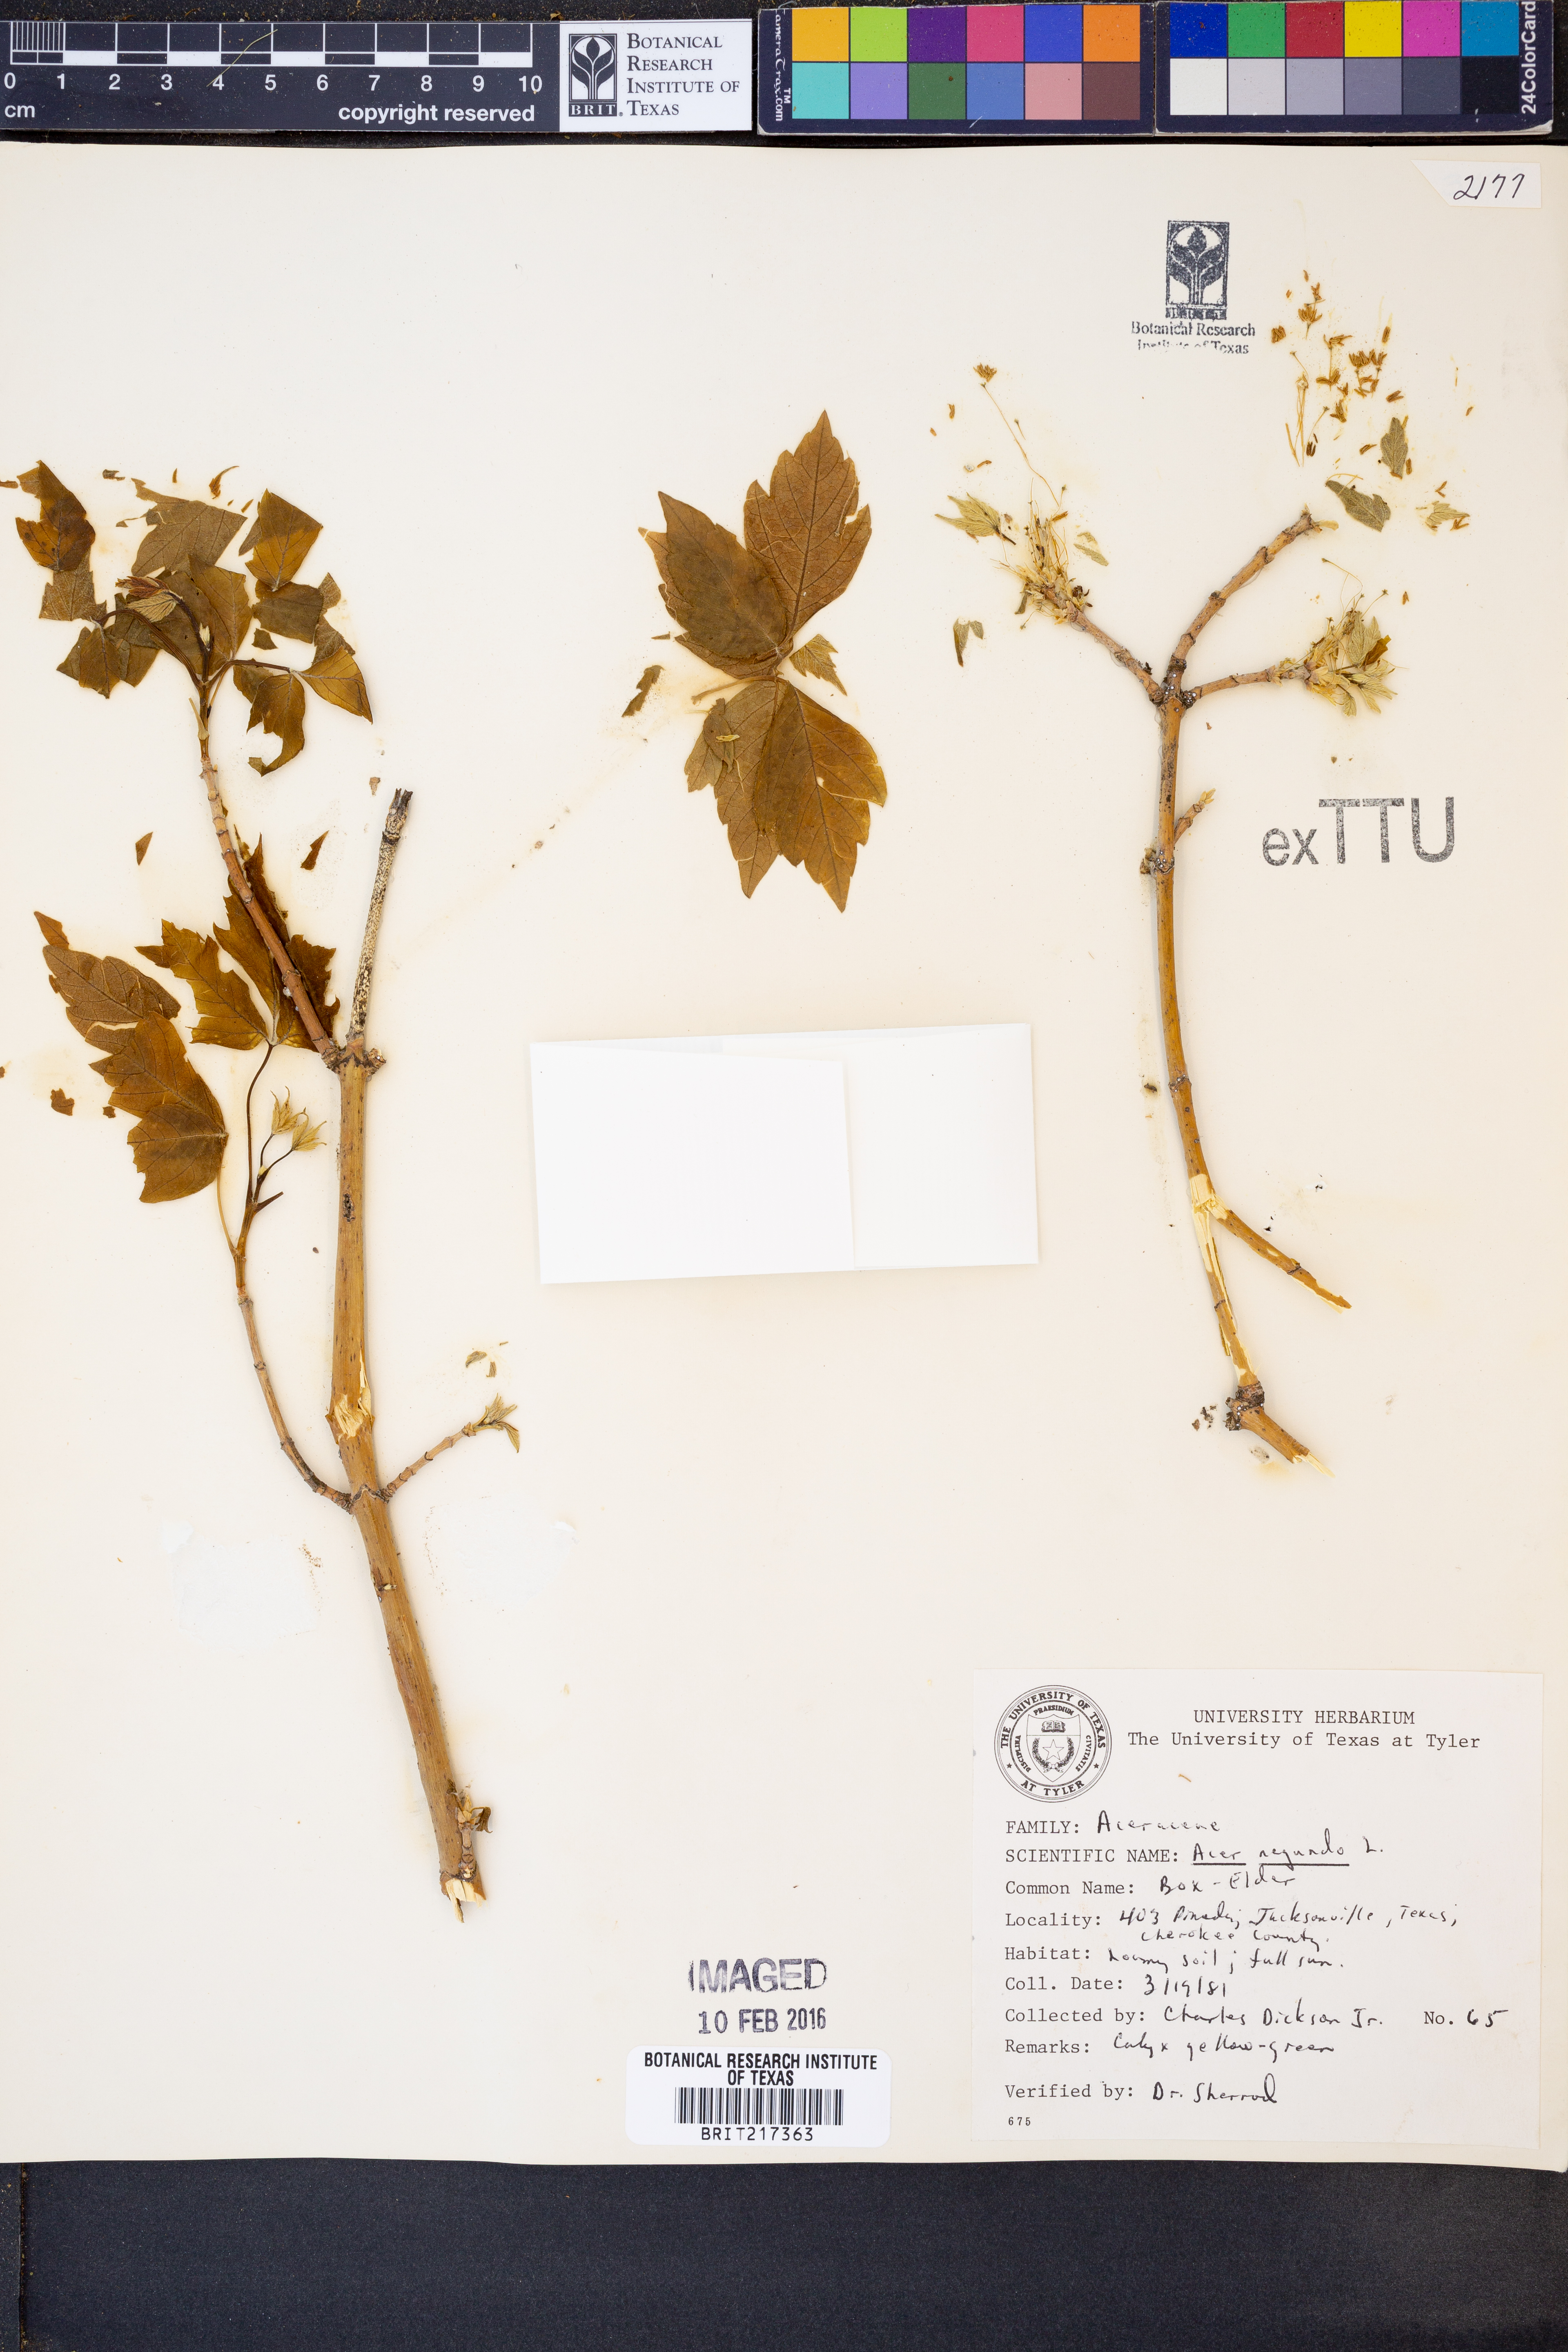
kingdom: Plantae
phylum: Tracheophyta
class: Magnoliopsida
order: Sapindales
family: Sapindaceae
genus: Acer
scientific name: Acer negundo
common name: Ashleaf maple
